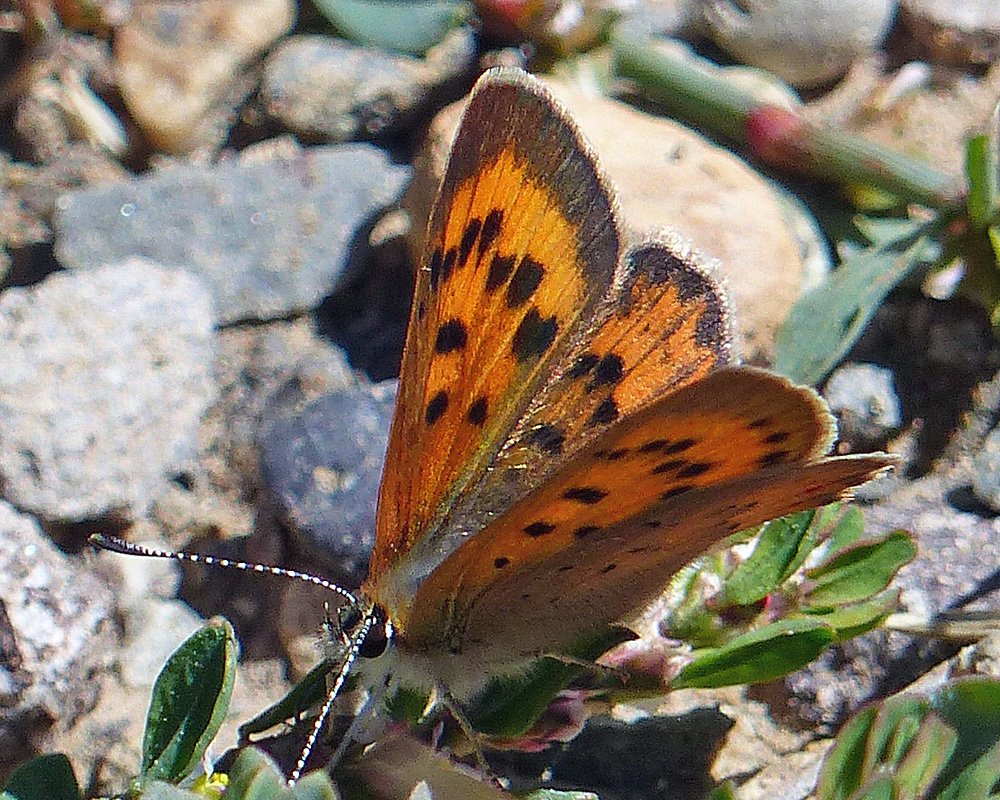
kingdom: Animalia
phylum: Arthropoda
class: Insecta
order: Lepidoptera
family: Lycaenidae
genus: Lycaena
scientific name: Lycaena cupreus
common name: Lustrous Copper
